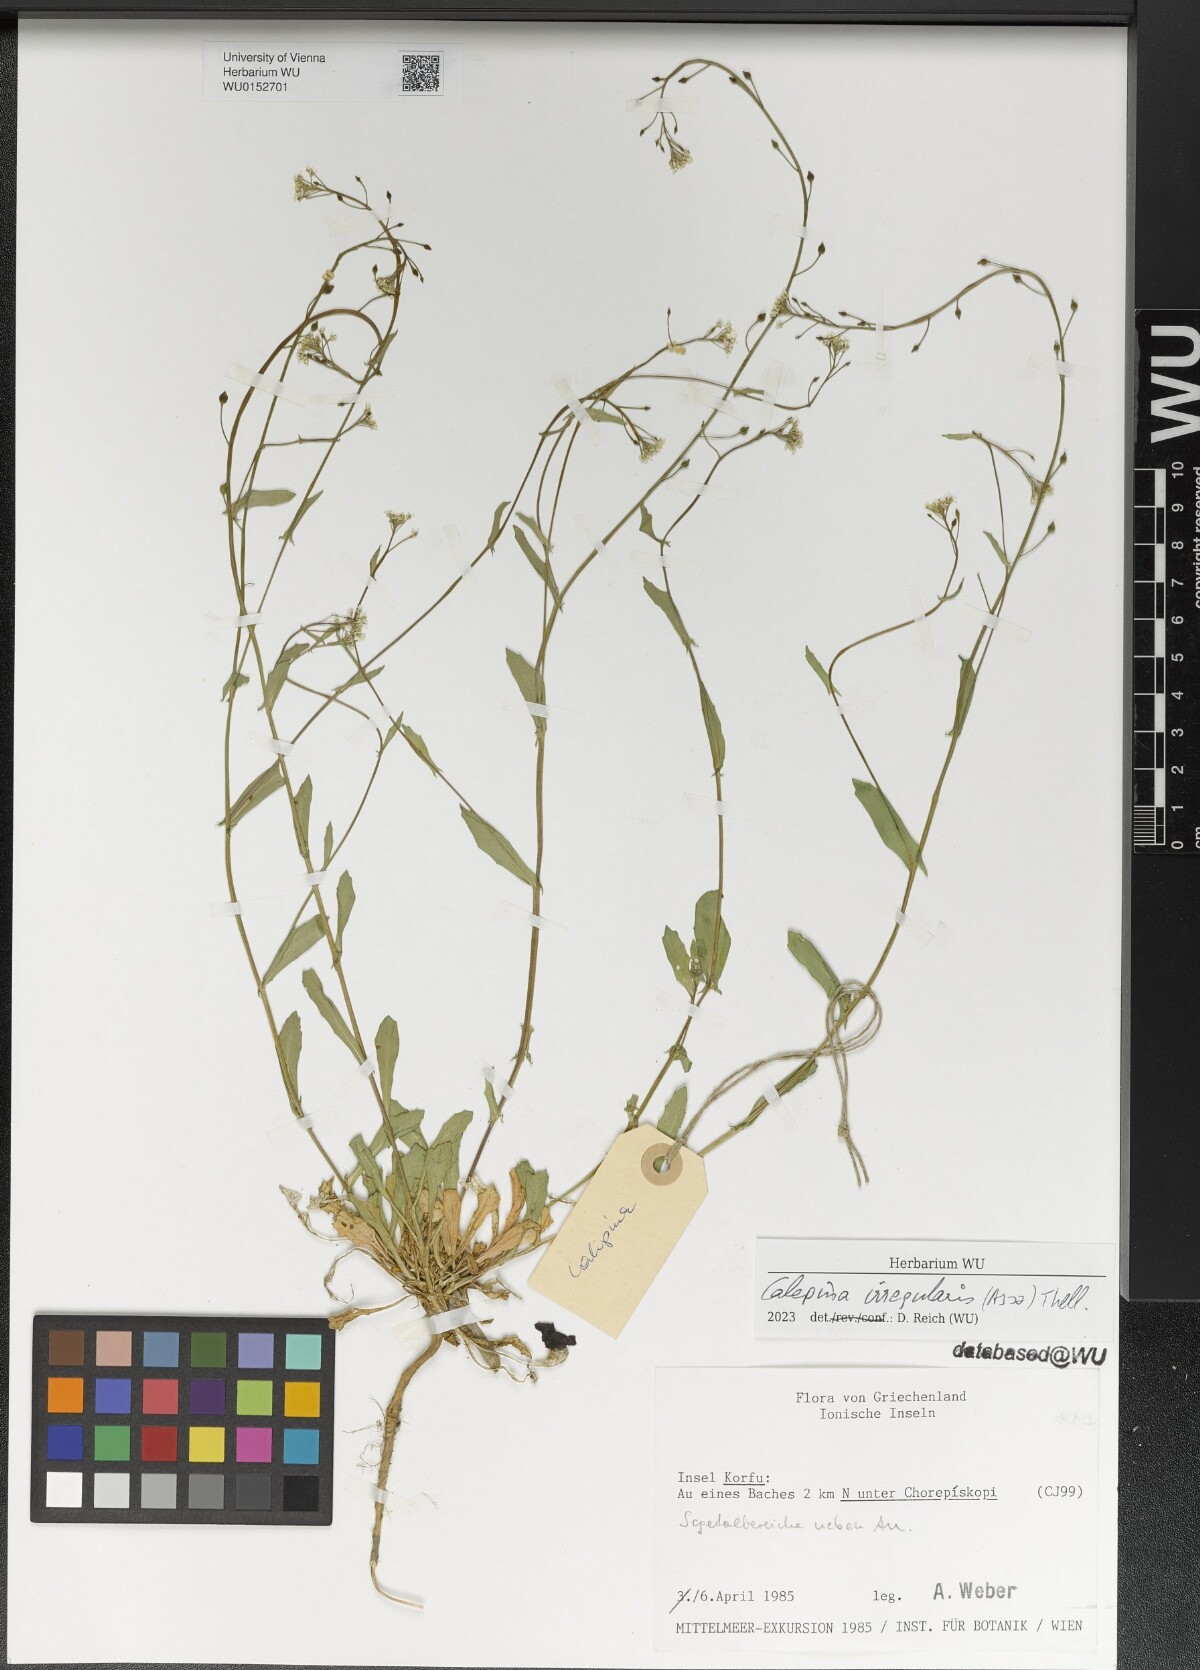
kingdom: Plantae
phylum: Tracheophyta
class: Magnoliopsida
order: Brassicales
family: Brassicaceae
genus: Calepina
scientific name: Calepina irregularis
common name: White ballmustard
